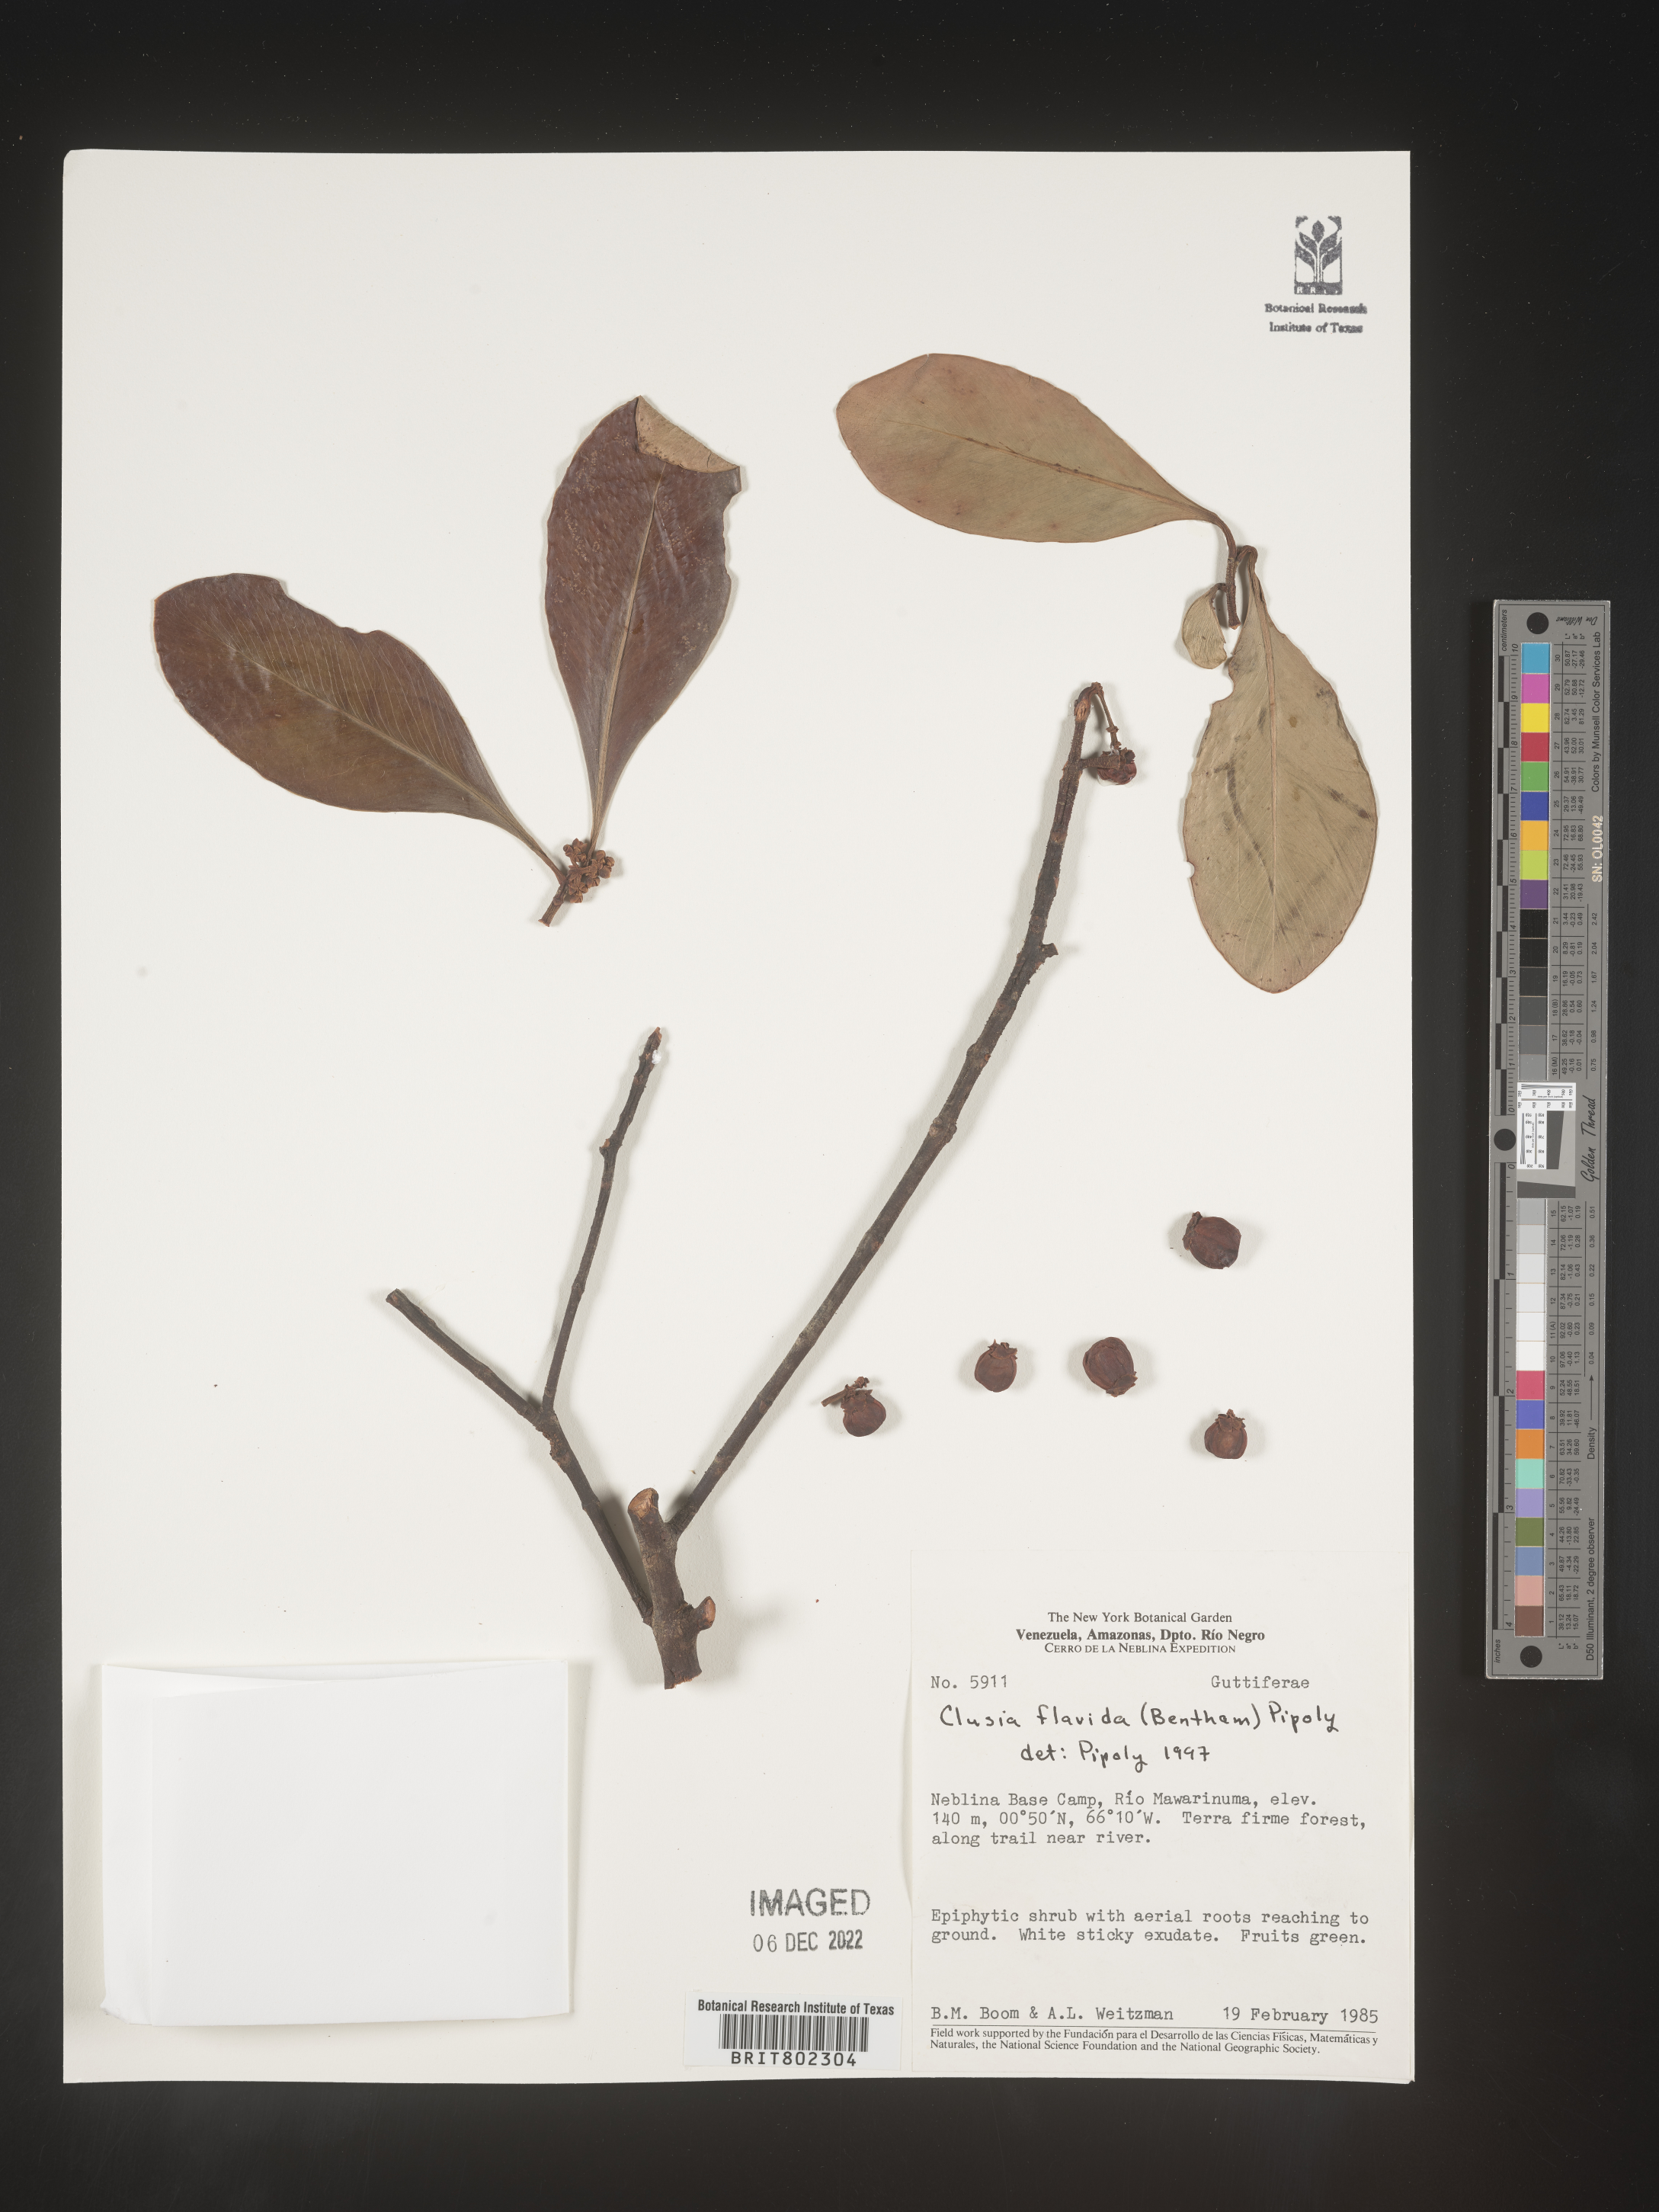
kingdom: Plantae
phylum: Tracheophyta
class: Magnoliopsida
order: Malpighiales
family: Clusiaceae
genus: Clusia
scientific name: Clusia flavida
